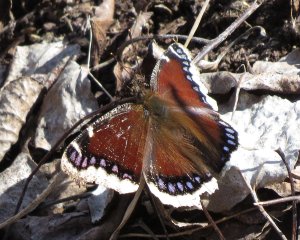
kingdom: Animalia
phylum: Arthropoda
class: Insecta
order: Lepidoptera
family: Nymphalidae
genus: Nymphalis
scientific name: Nymphalis antiopa
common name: Mourning Cloak
